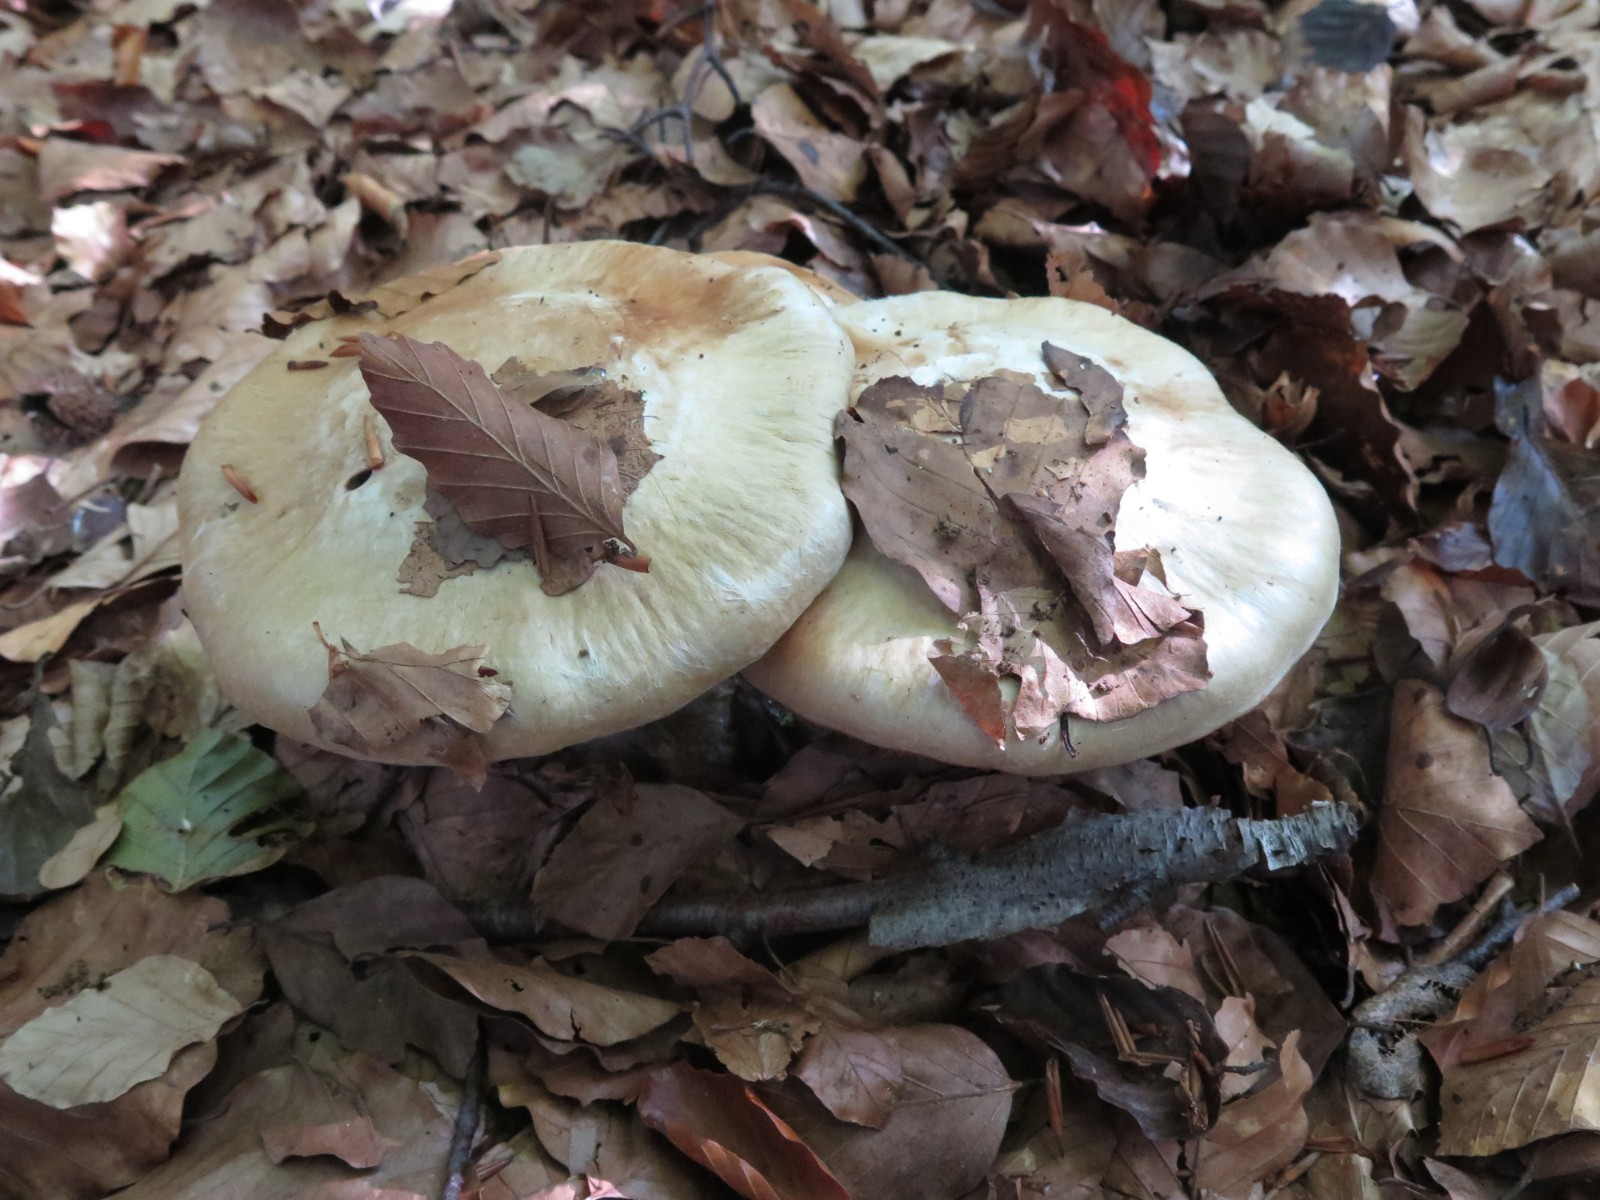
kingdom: Fungi
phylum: Basidiomycota
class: Agaricomycetes
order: Agaricales
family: Cortinariaceae
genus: Cortinarius
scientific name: Cortinarius anserinus
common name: bøge-slørhat
